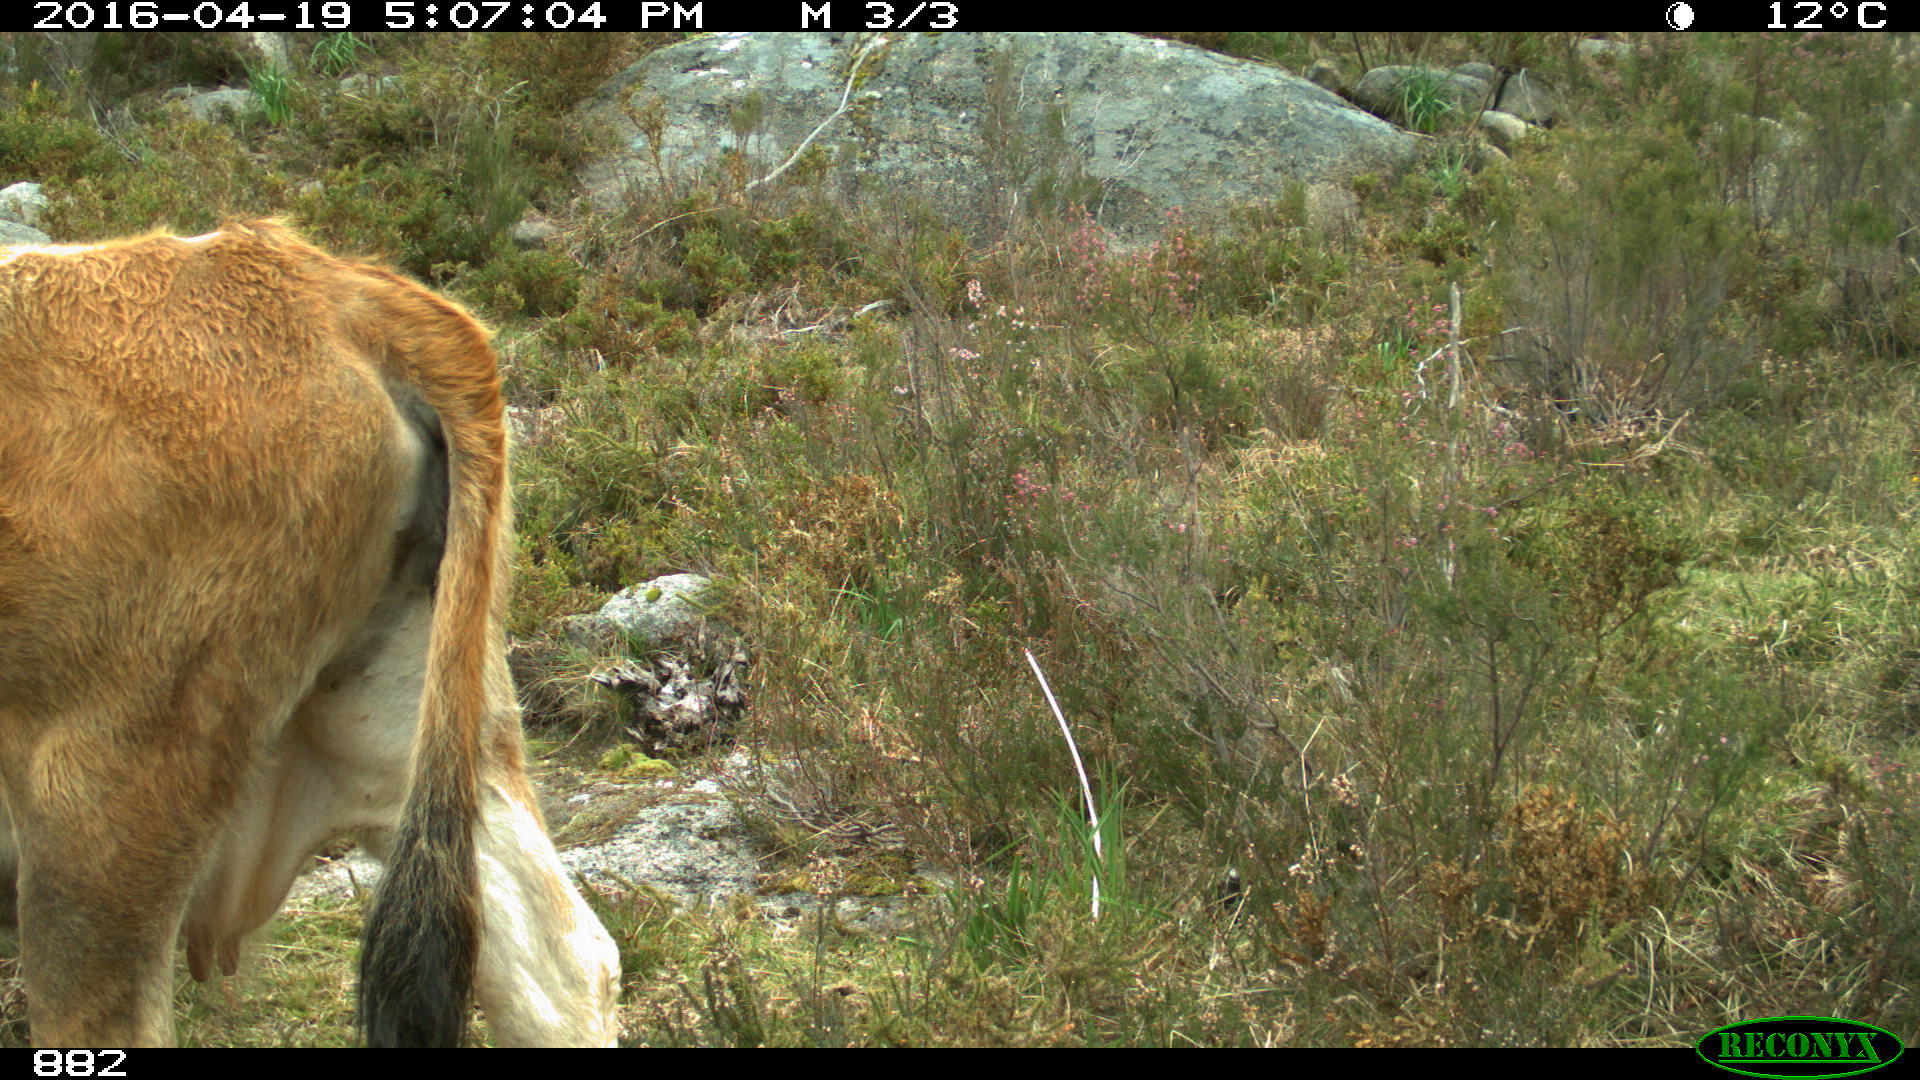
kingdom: Animalia
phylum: Chordata
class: Mammalia
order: Artiodactyla
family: Bovidae
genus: Bos
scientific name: Bos taurus
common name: Domesticated cattle
